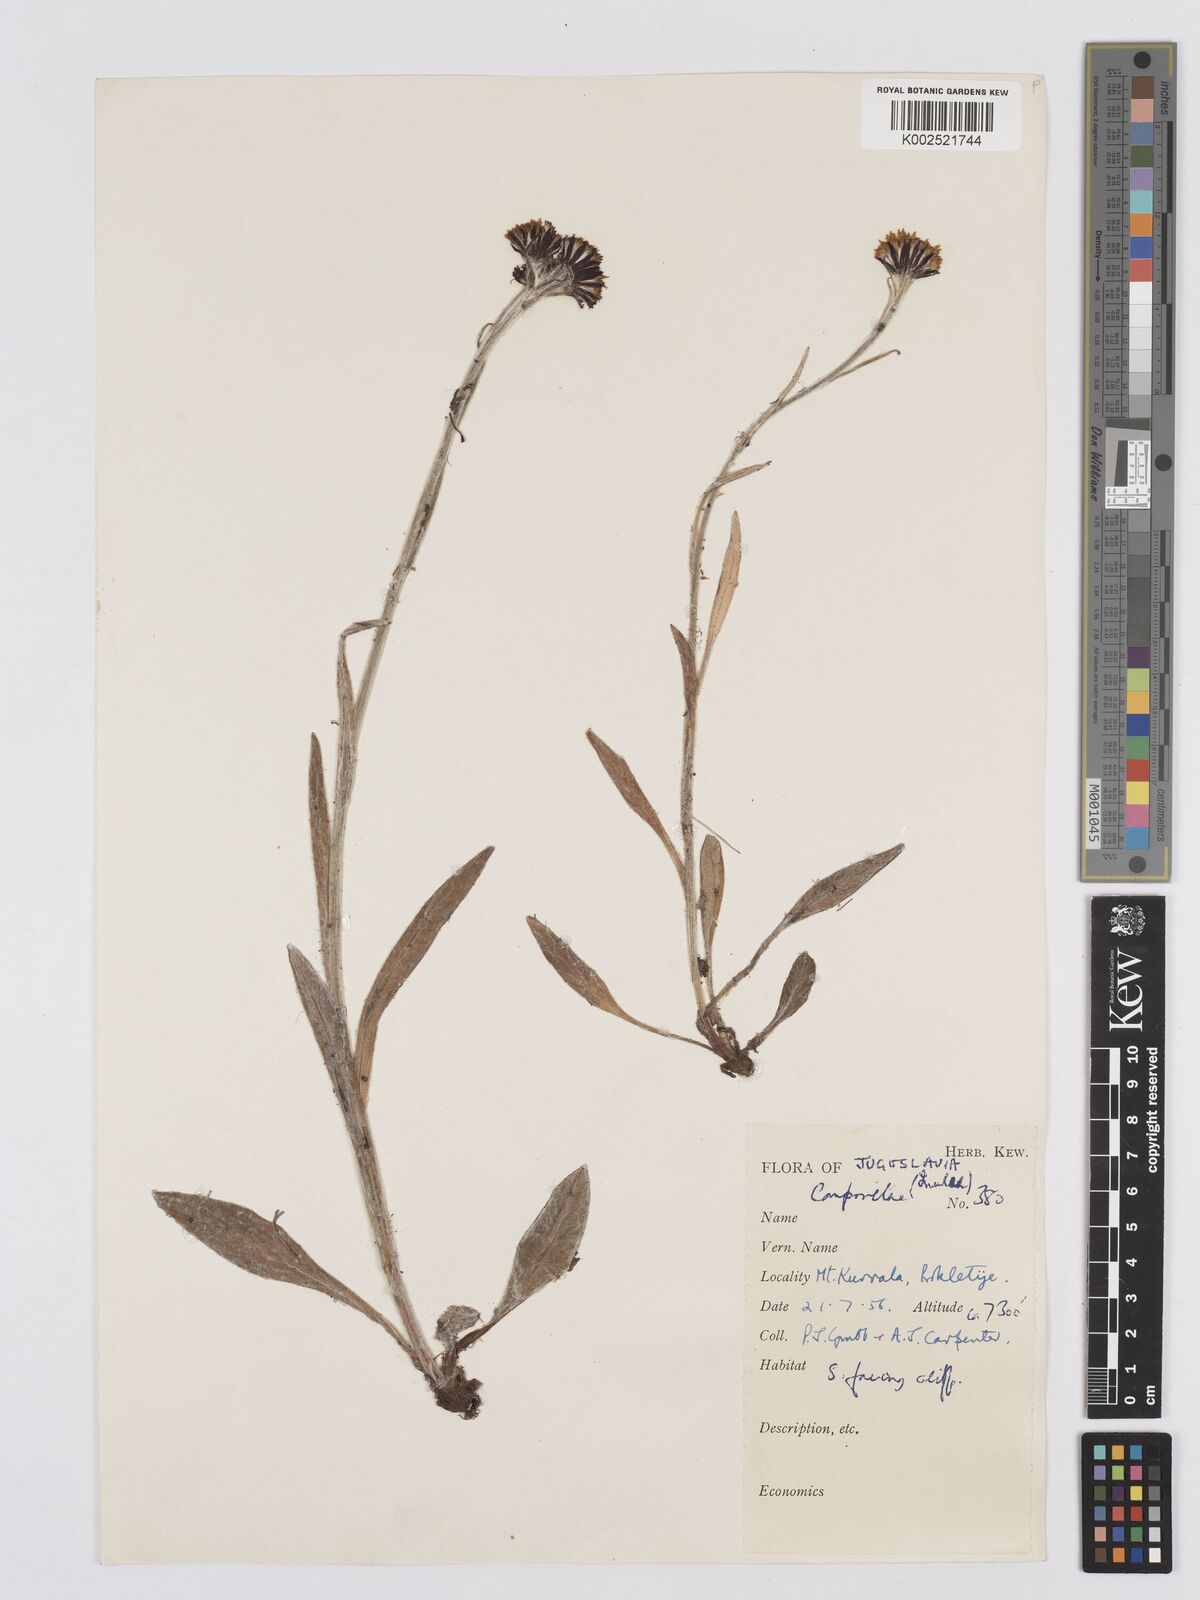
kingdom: Plantae
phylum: Tracheophyta
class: Magnoliopsida
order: Asterales
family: Asteraceae
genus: Tephroseris
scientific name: Tephroseris papposa
